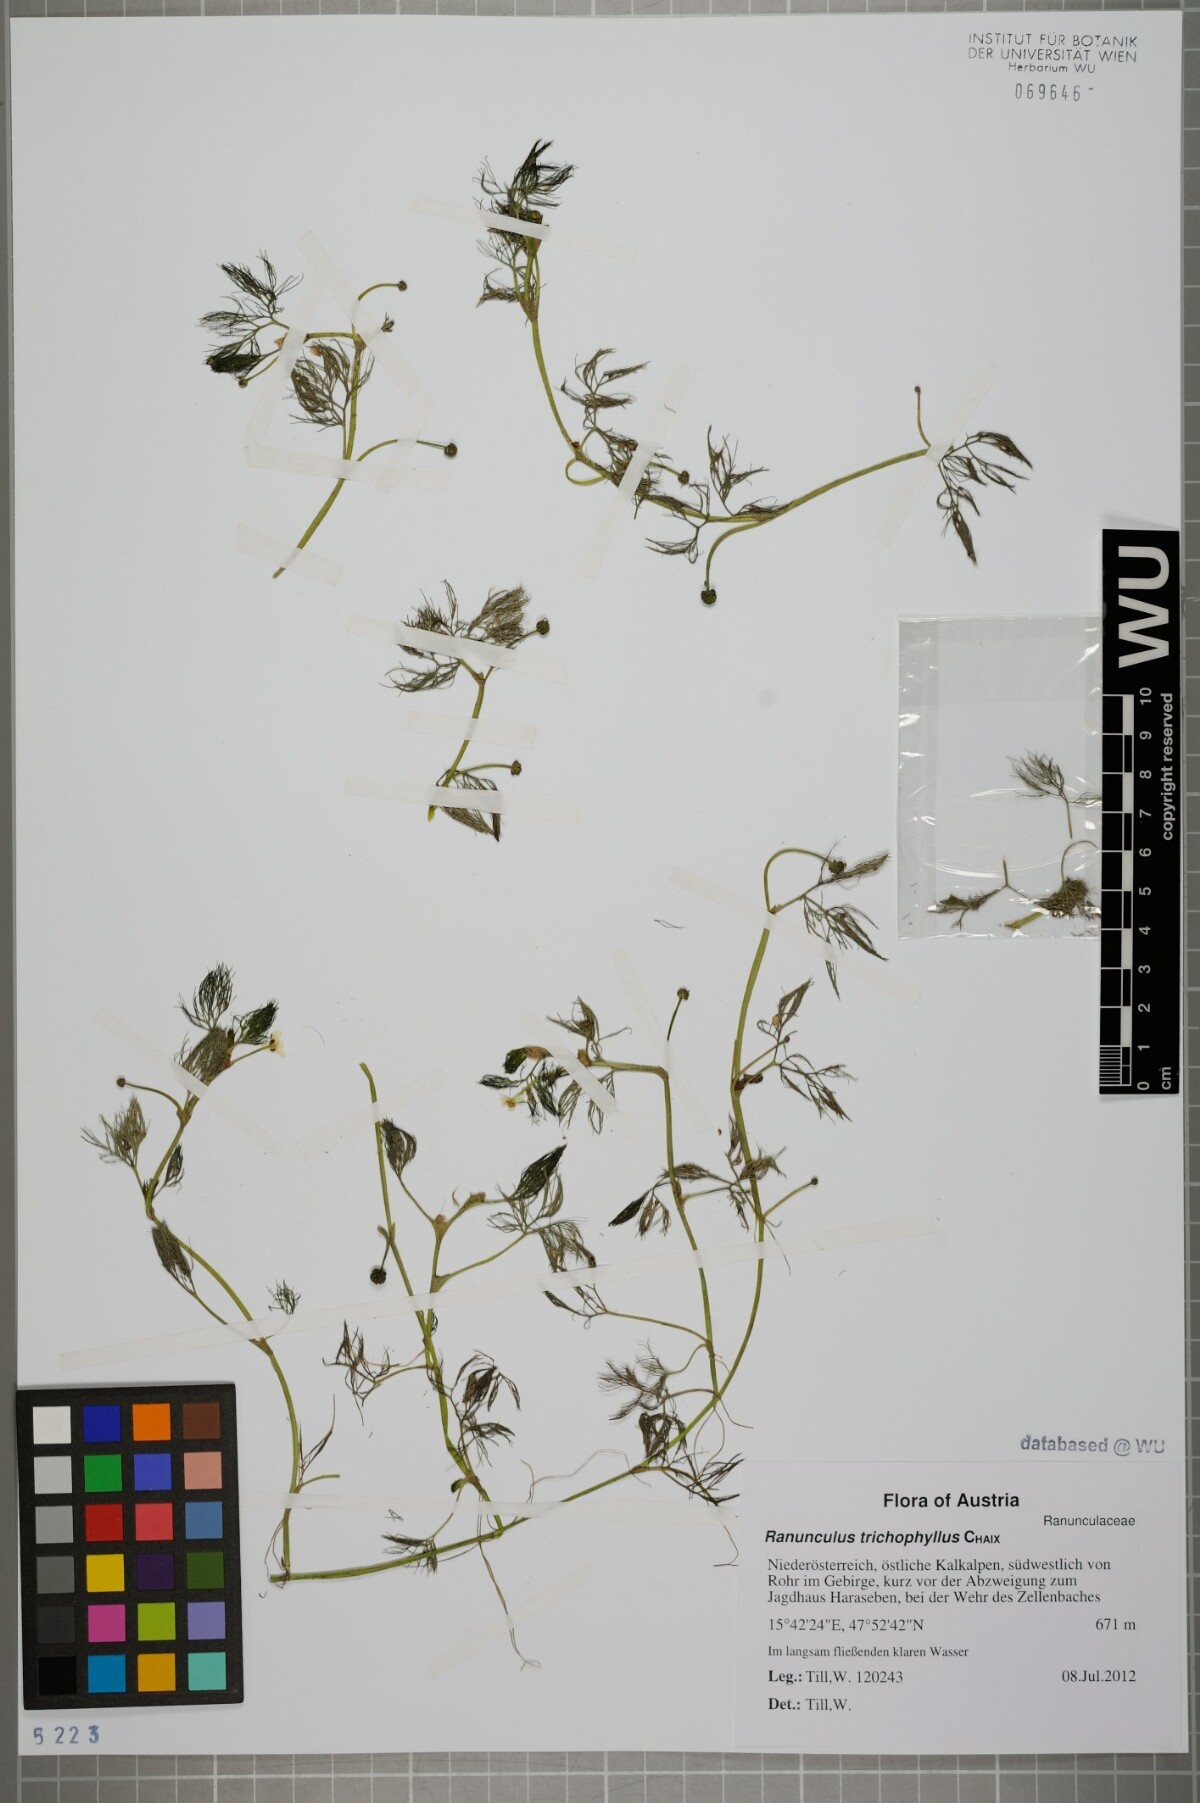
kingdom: Plantae
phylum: Tracheophyta
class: Magnoliopsida
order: Ranunculales
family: Ranunculaceae
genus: Ranunculus
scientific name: Ranunculus trichophyllus
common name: Thread-leaved water-crowfoot
